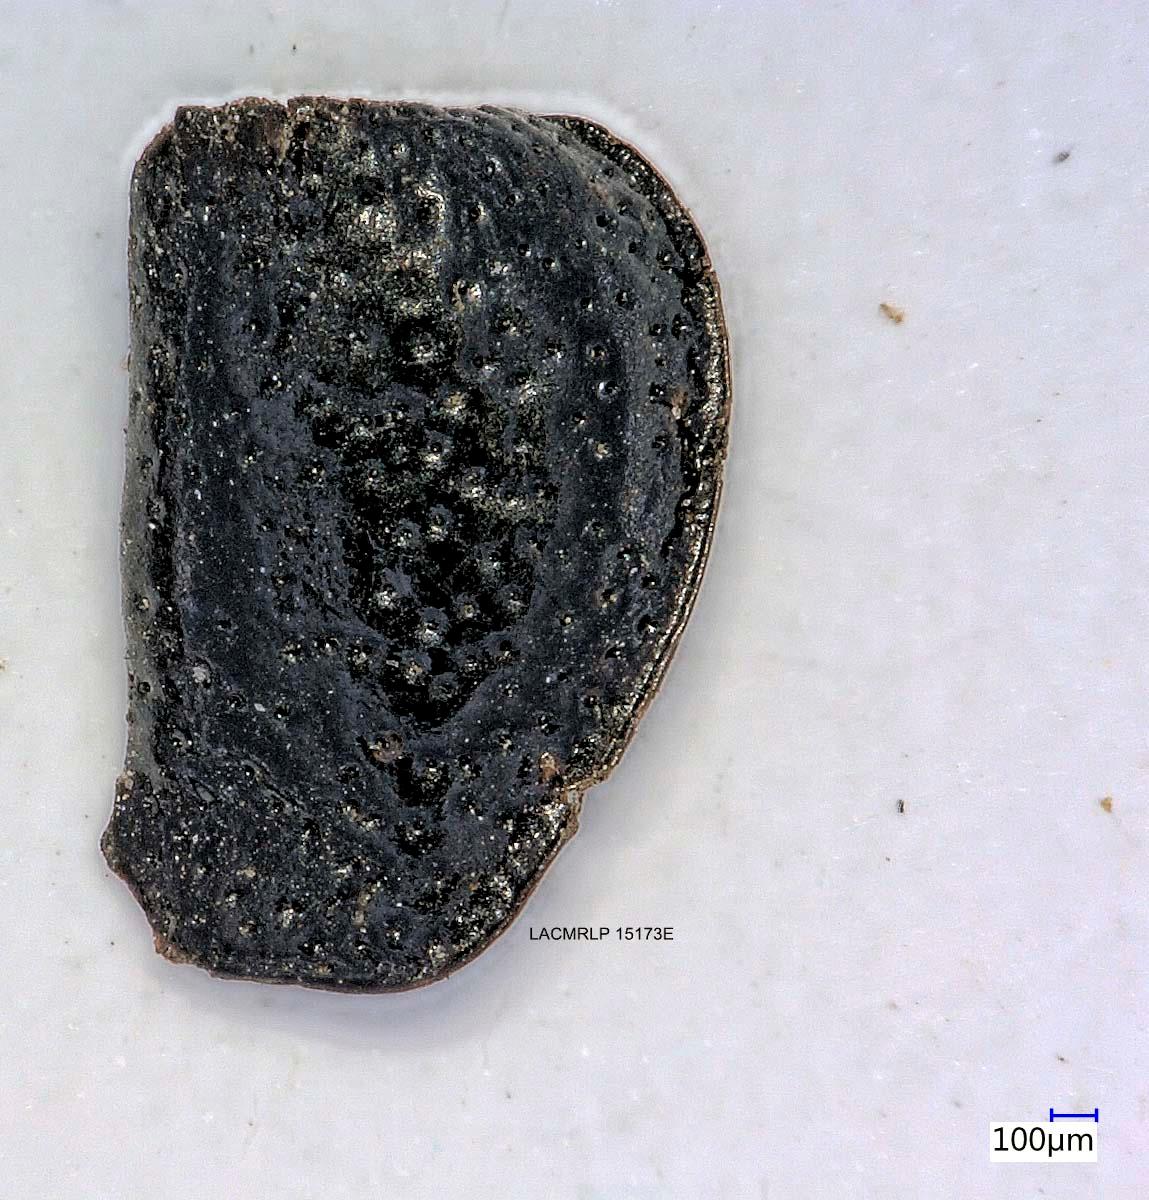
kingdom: Animalia
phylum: Arthropoda
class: Insecta
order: Coleoptera
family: Carabidae
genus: Dicheirus
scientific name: Dicheirus dilatatus
